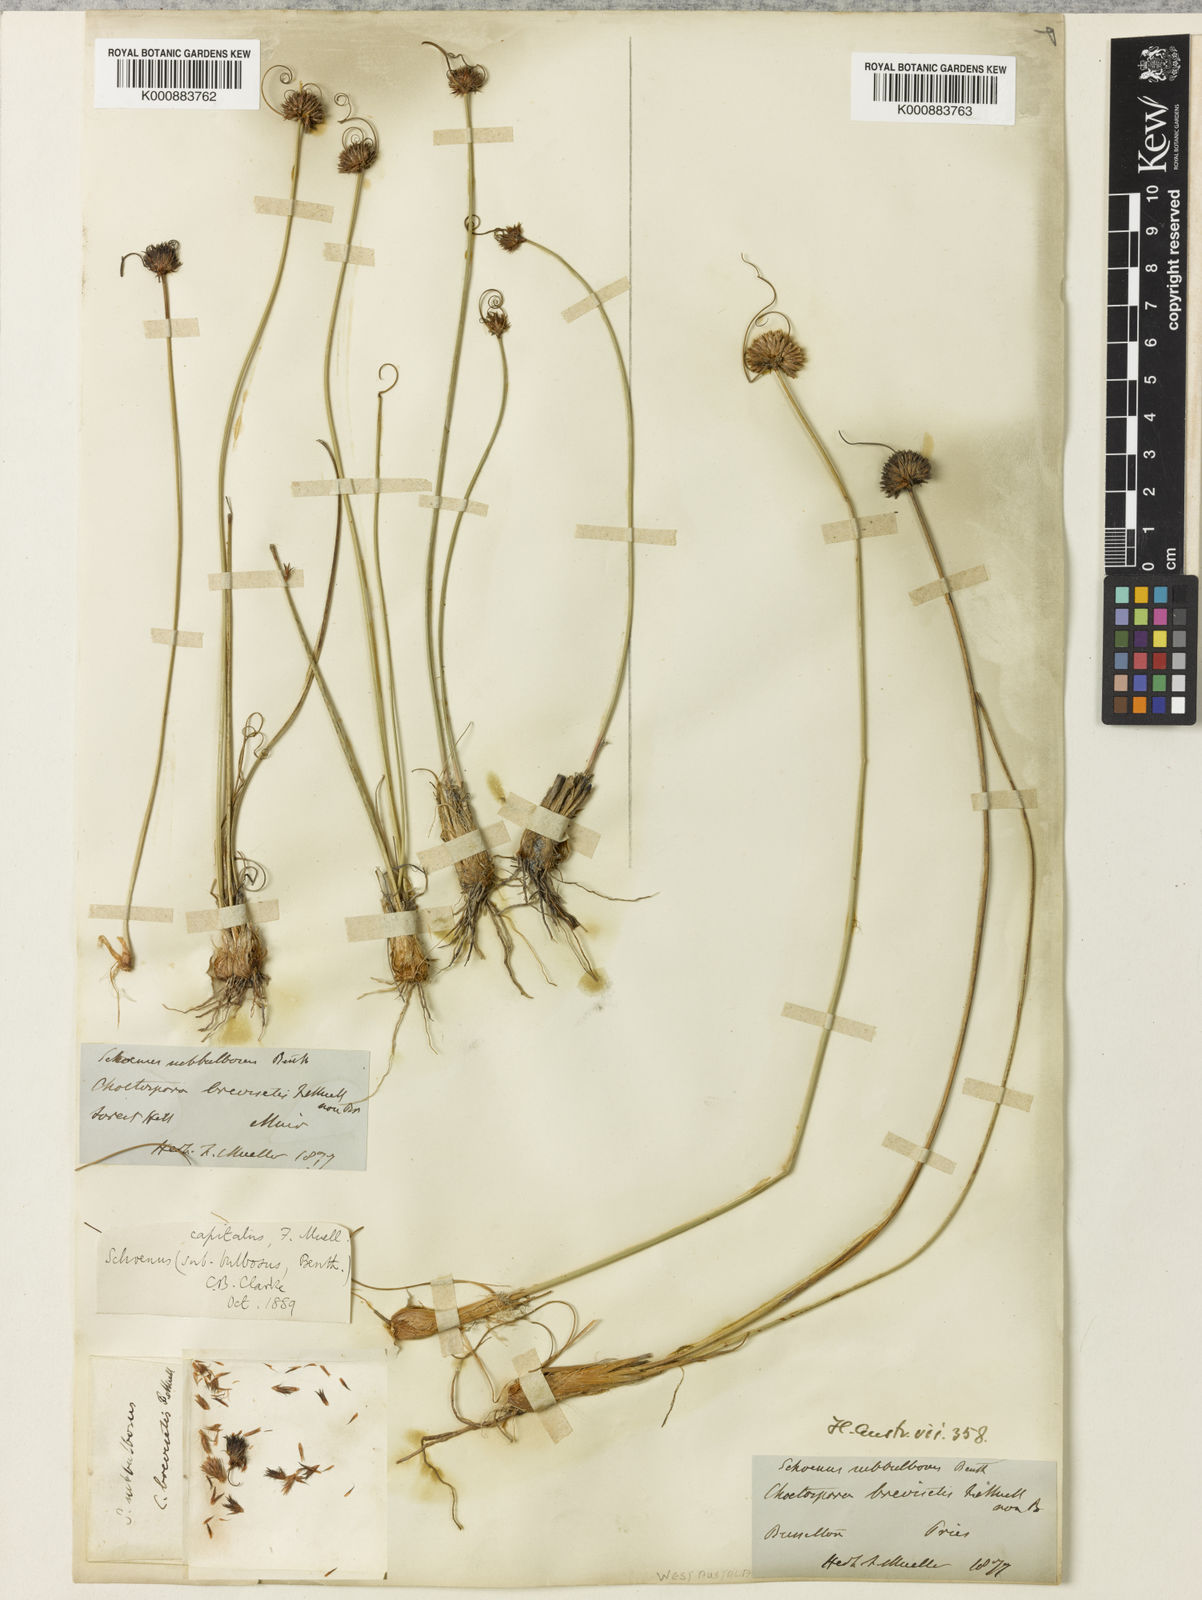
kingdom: Plantae
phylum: Tracheophyta
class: Liliopsida
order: Poales
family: Cyperaceae
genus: Schoenus
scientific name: Schoenus subbulbosus
